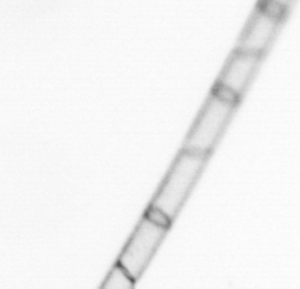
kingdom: Chromista
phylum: Ochrophyta
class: Bacillariophyceae
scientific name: Bacillariophyceae
